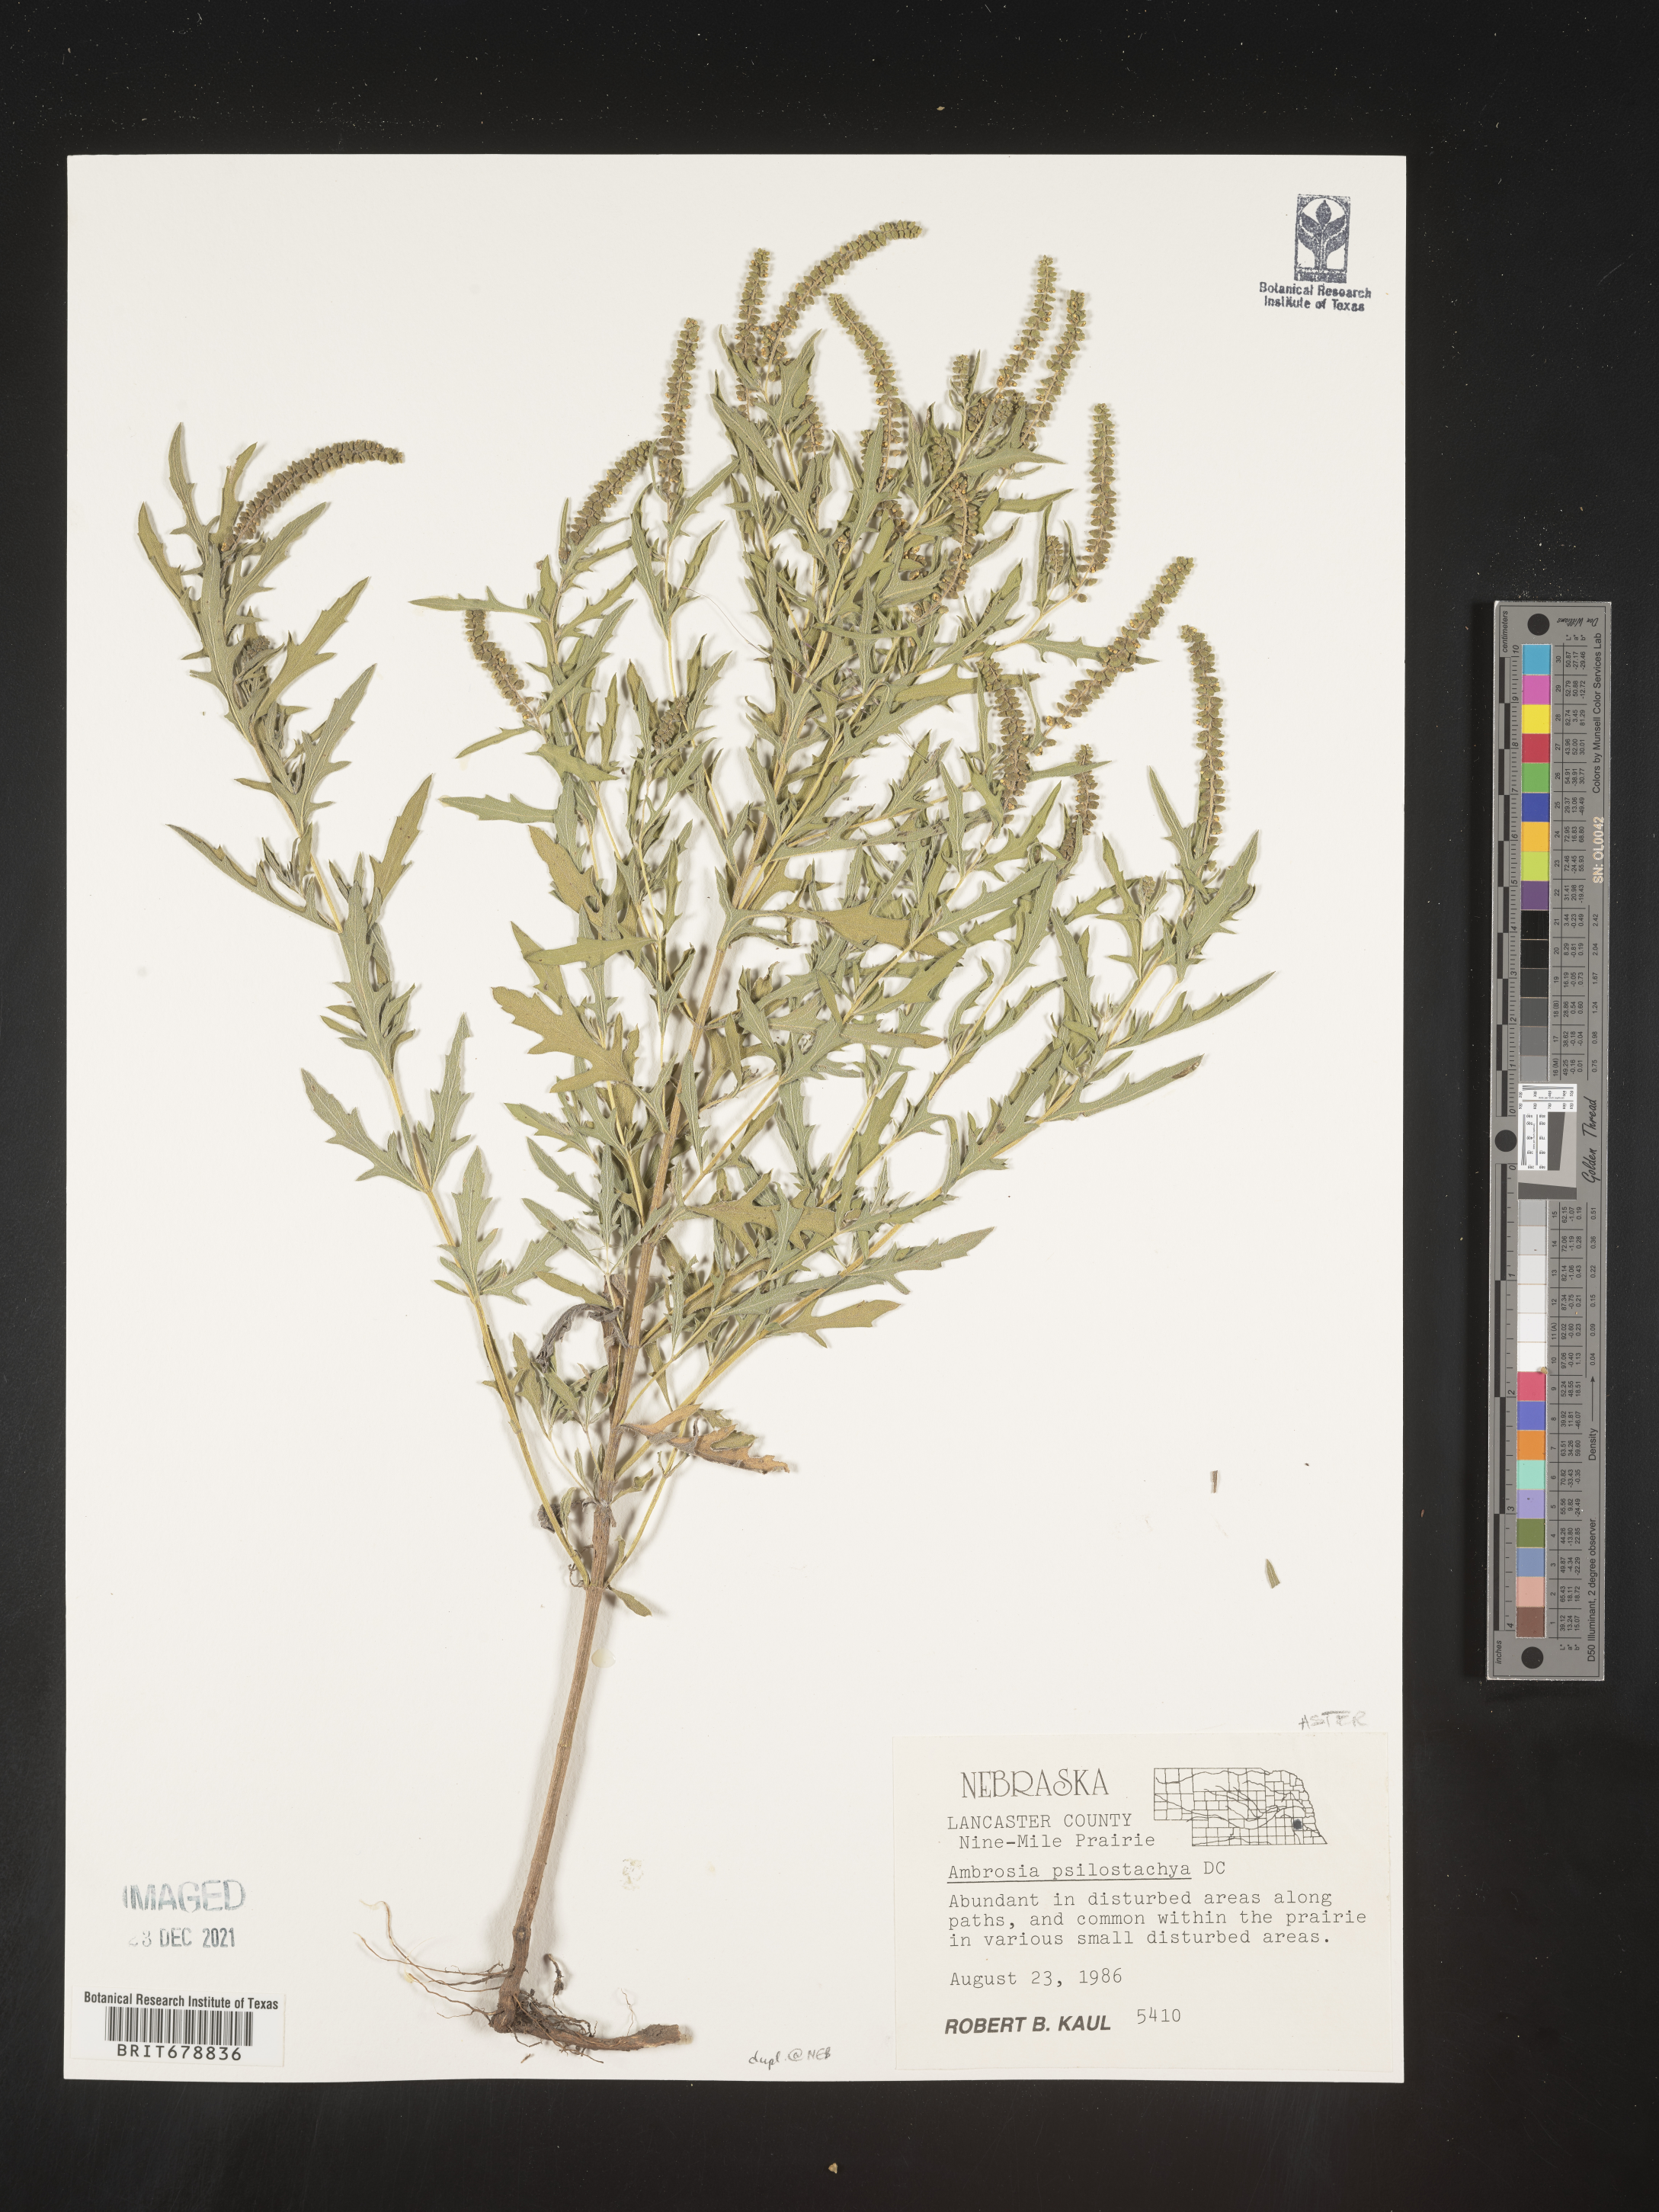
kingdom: Plantae
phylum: Tracheophyta
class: Magnoliopsida
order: Asterales
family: Asteraceae
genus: Ambrosia
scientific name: Ambrosia psilostachya
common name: Perennial ragweed
